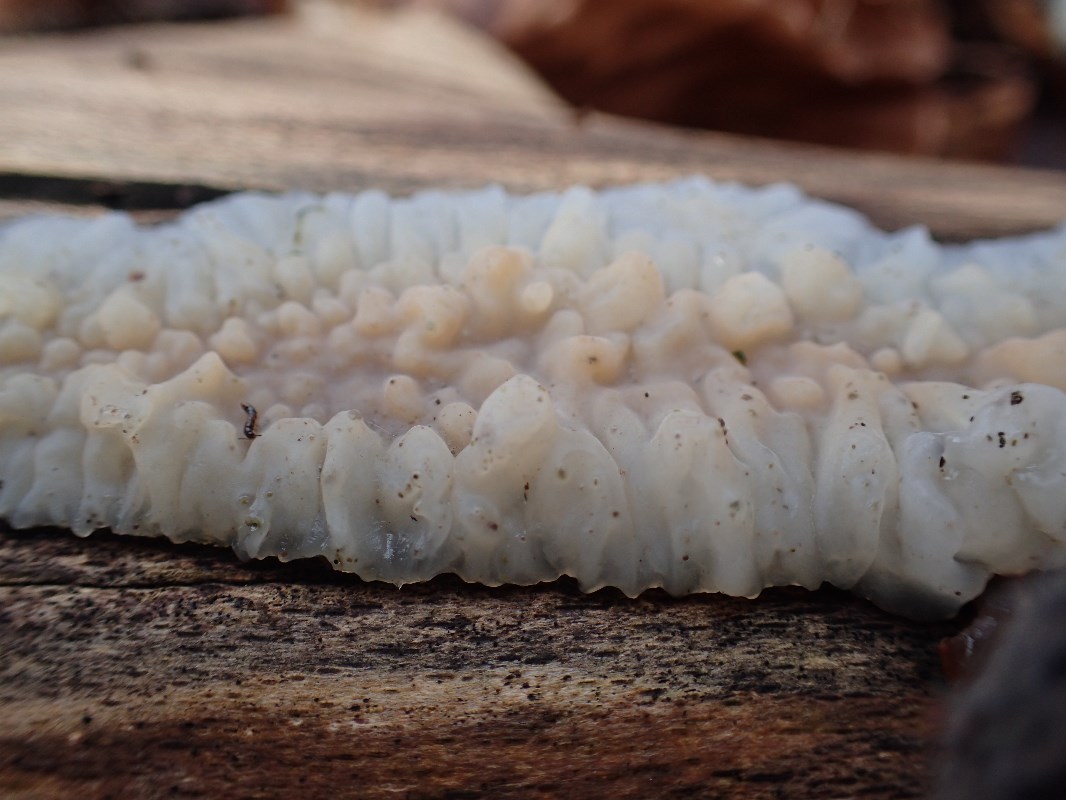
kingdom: Fungi
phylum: Basidiomycota
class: Agaricomycetes
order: Auriculariales
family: Auriculariaceae
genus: Exidia
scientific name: Exidia thuretiana
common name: hvidlig bævretop
